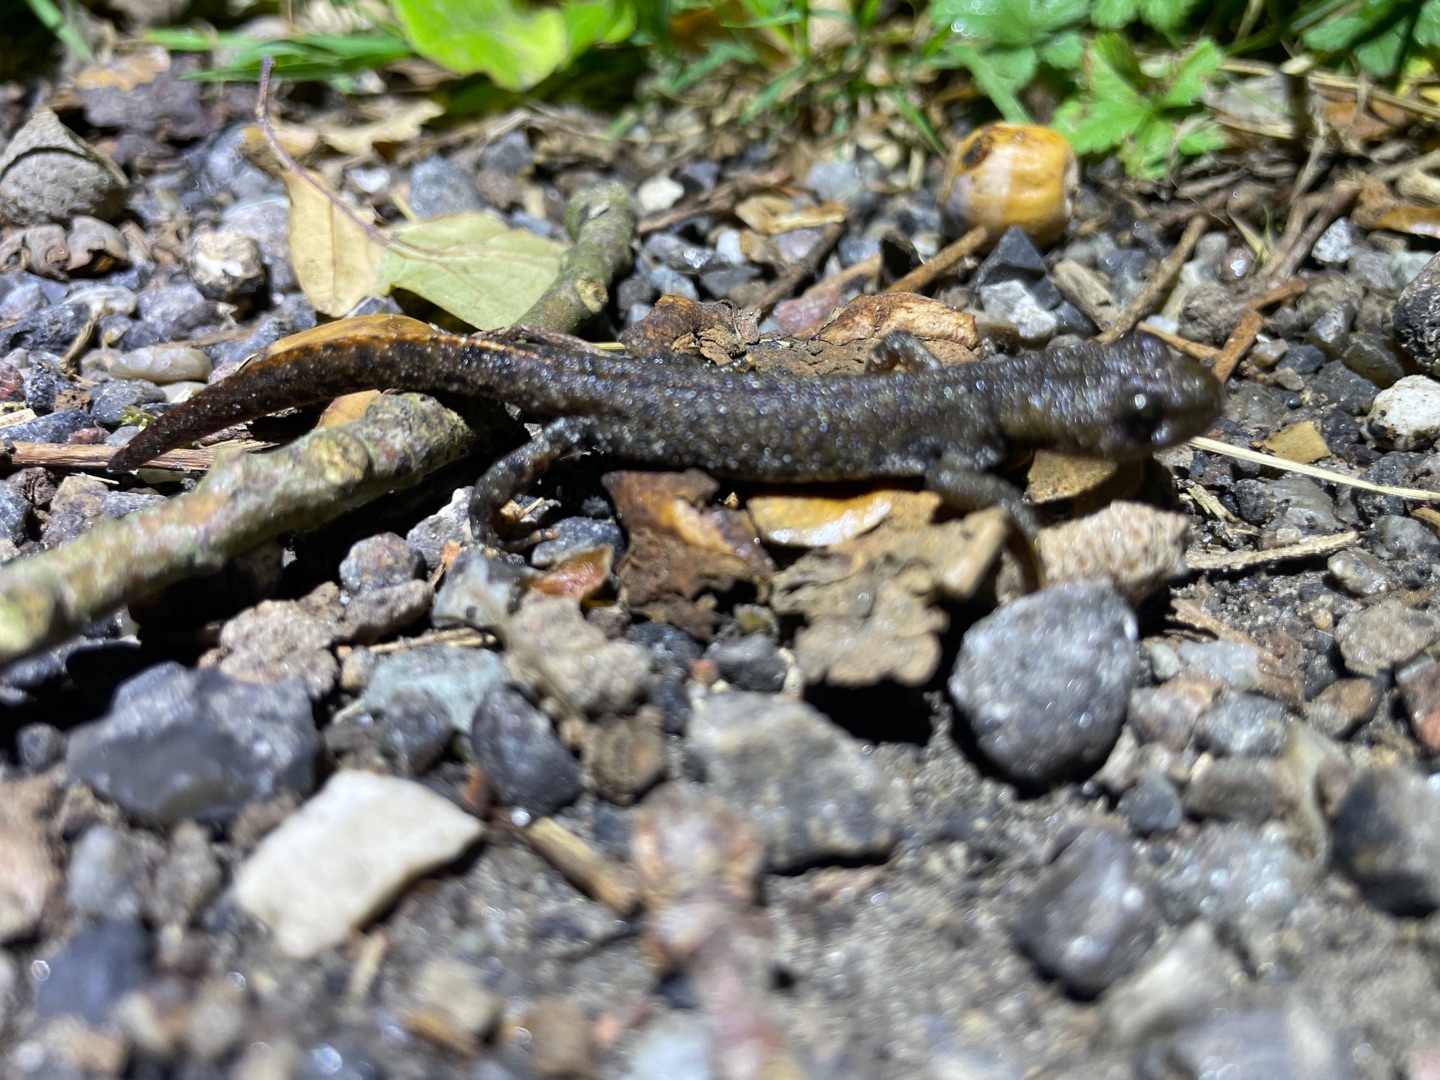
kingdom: Animalia
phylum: Chordata
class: Amphibia
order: Caudata
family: Salamandridae
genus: Triturus
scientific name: Triturus cristatus
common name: Stor vandsalamander
